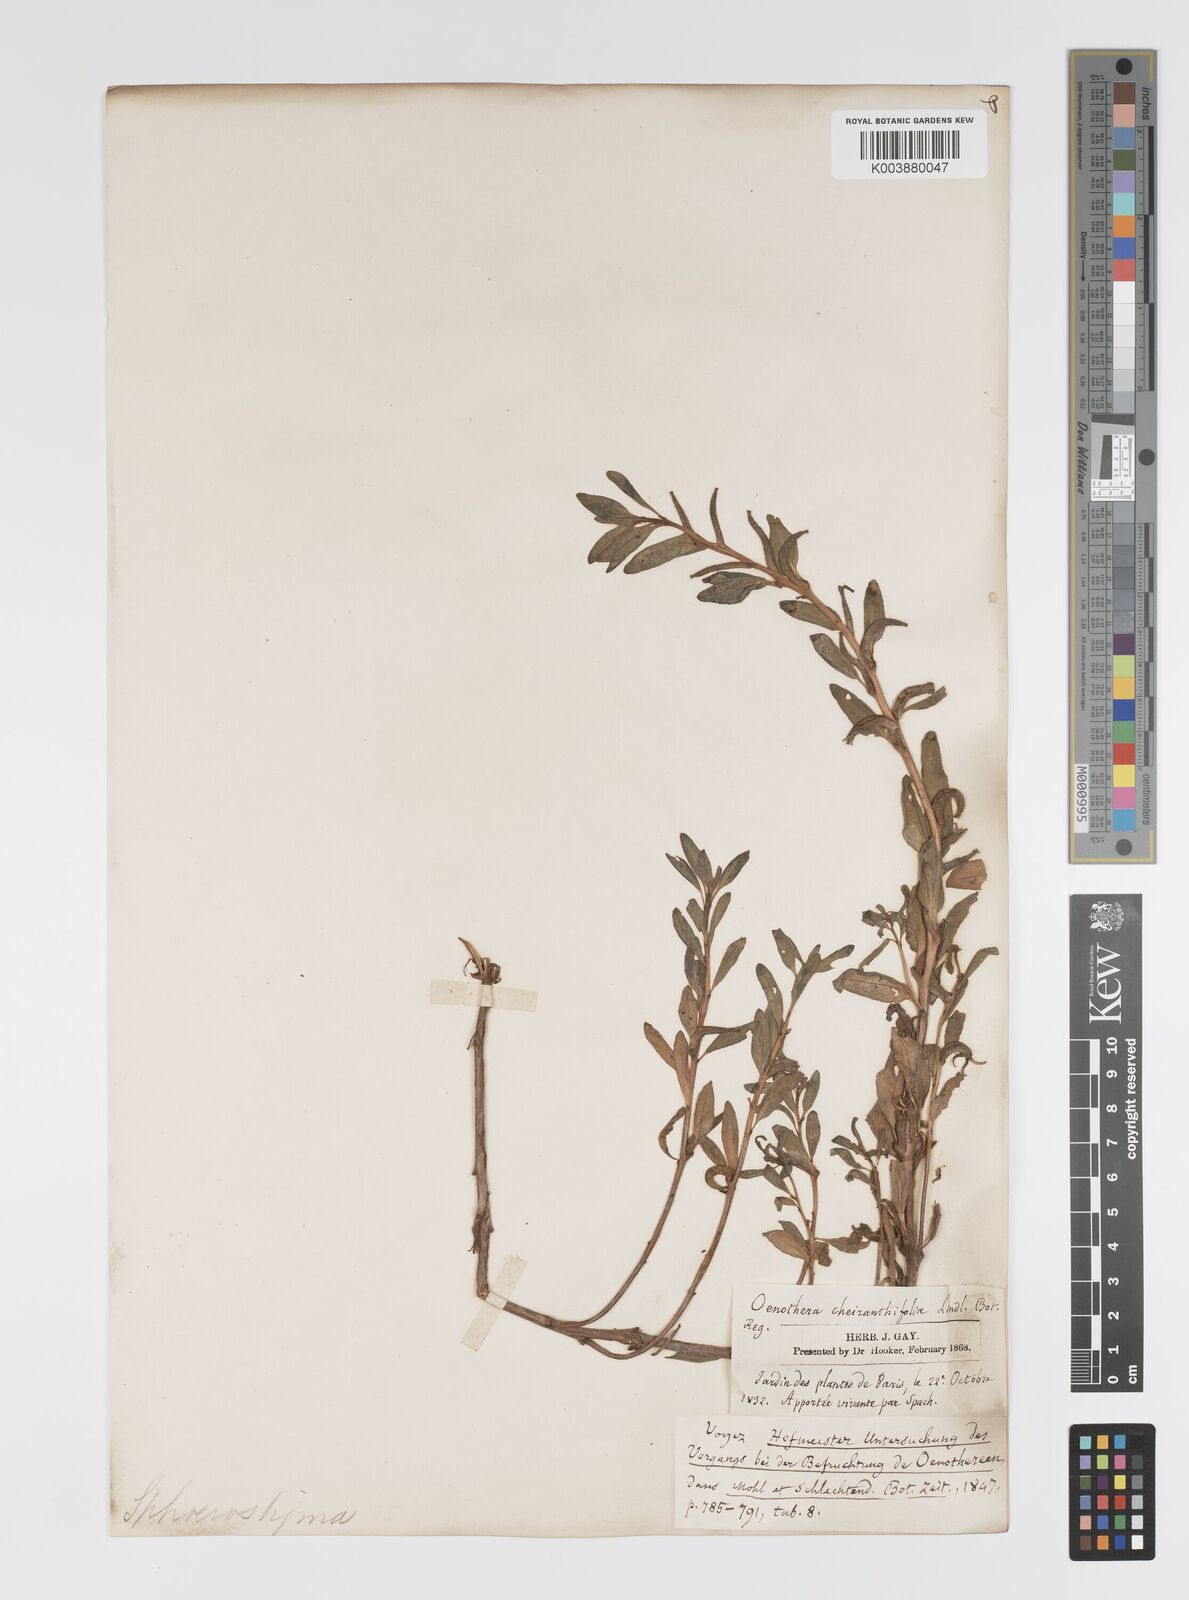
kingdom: Plantae
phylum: Tracheophyta
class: Magnoliopsida
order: Myrtales
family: Onagraceae
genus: Camissoniopsis
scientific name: Camissoniopsis cheiranthifolia
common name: Beach suncup
